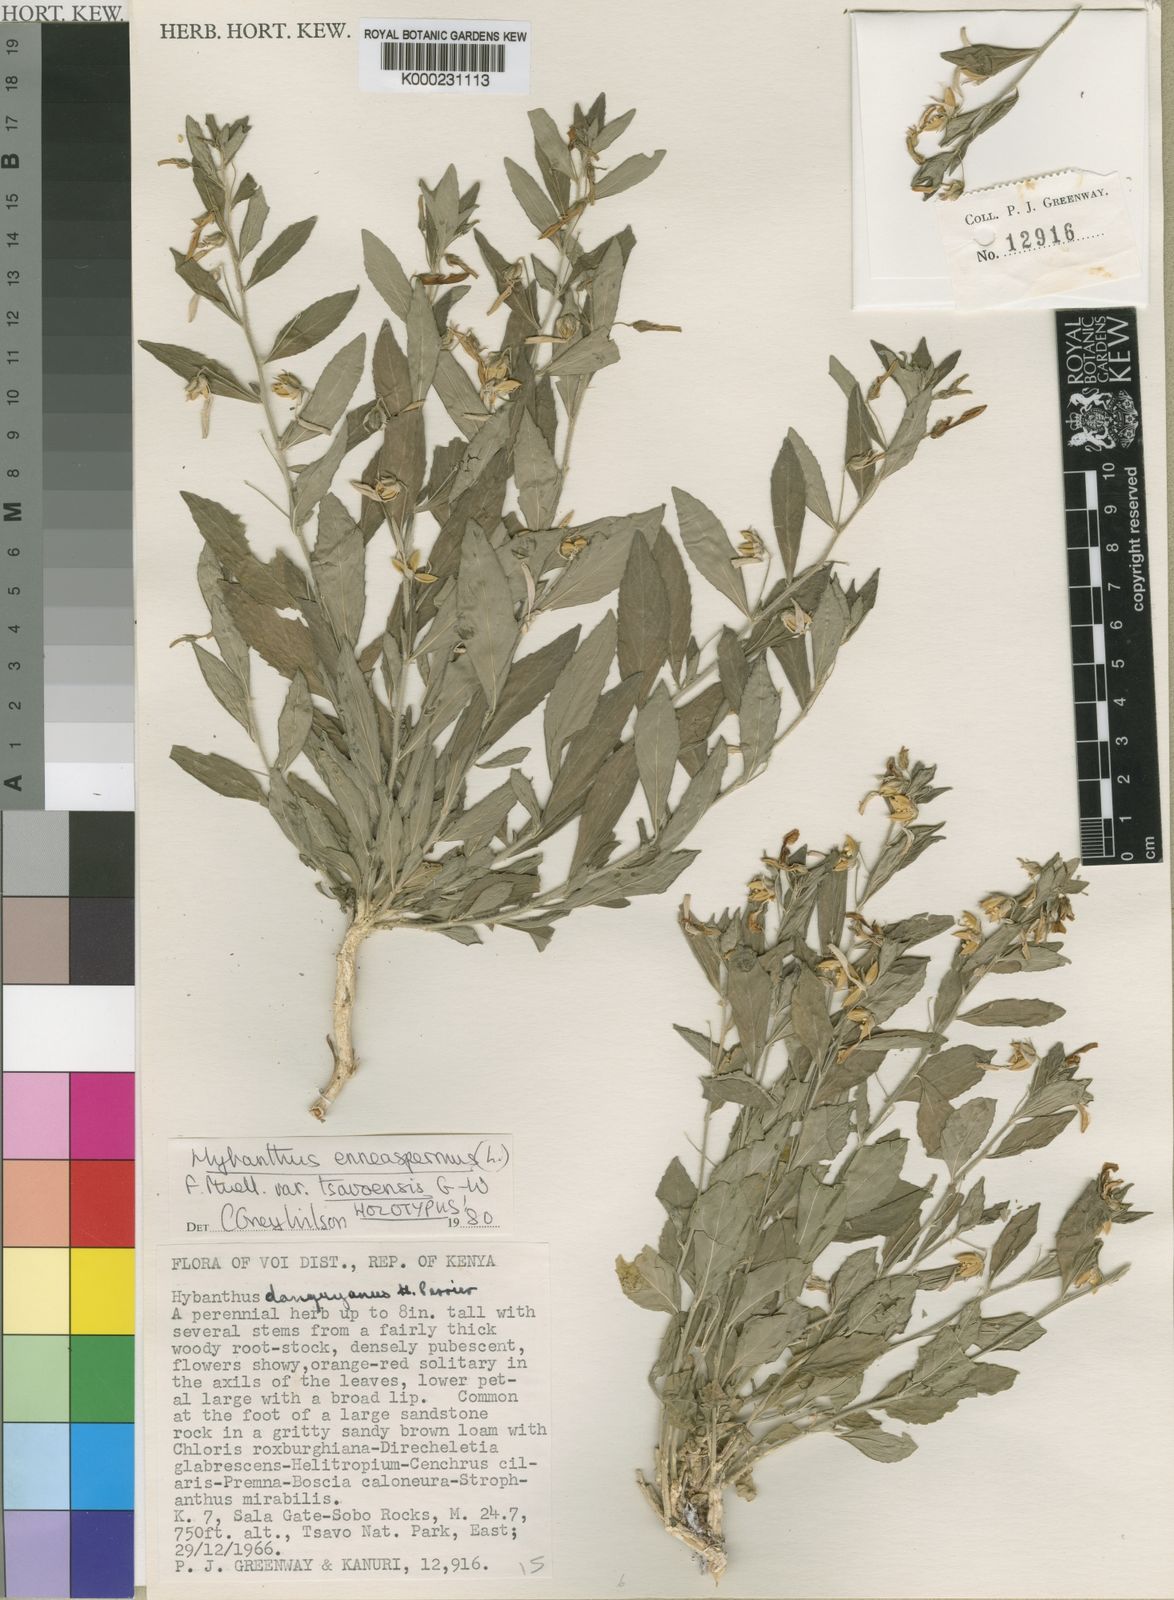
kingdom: Plantae
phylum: Tracheophyta
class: Magnoliopsida
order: Malpighiales
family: Violaceae
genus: Pigea
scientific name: Pigea tsavoensis
